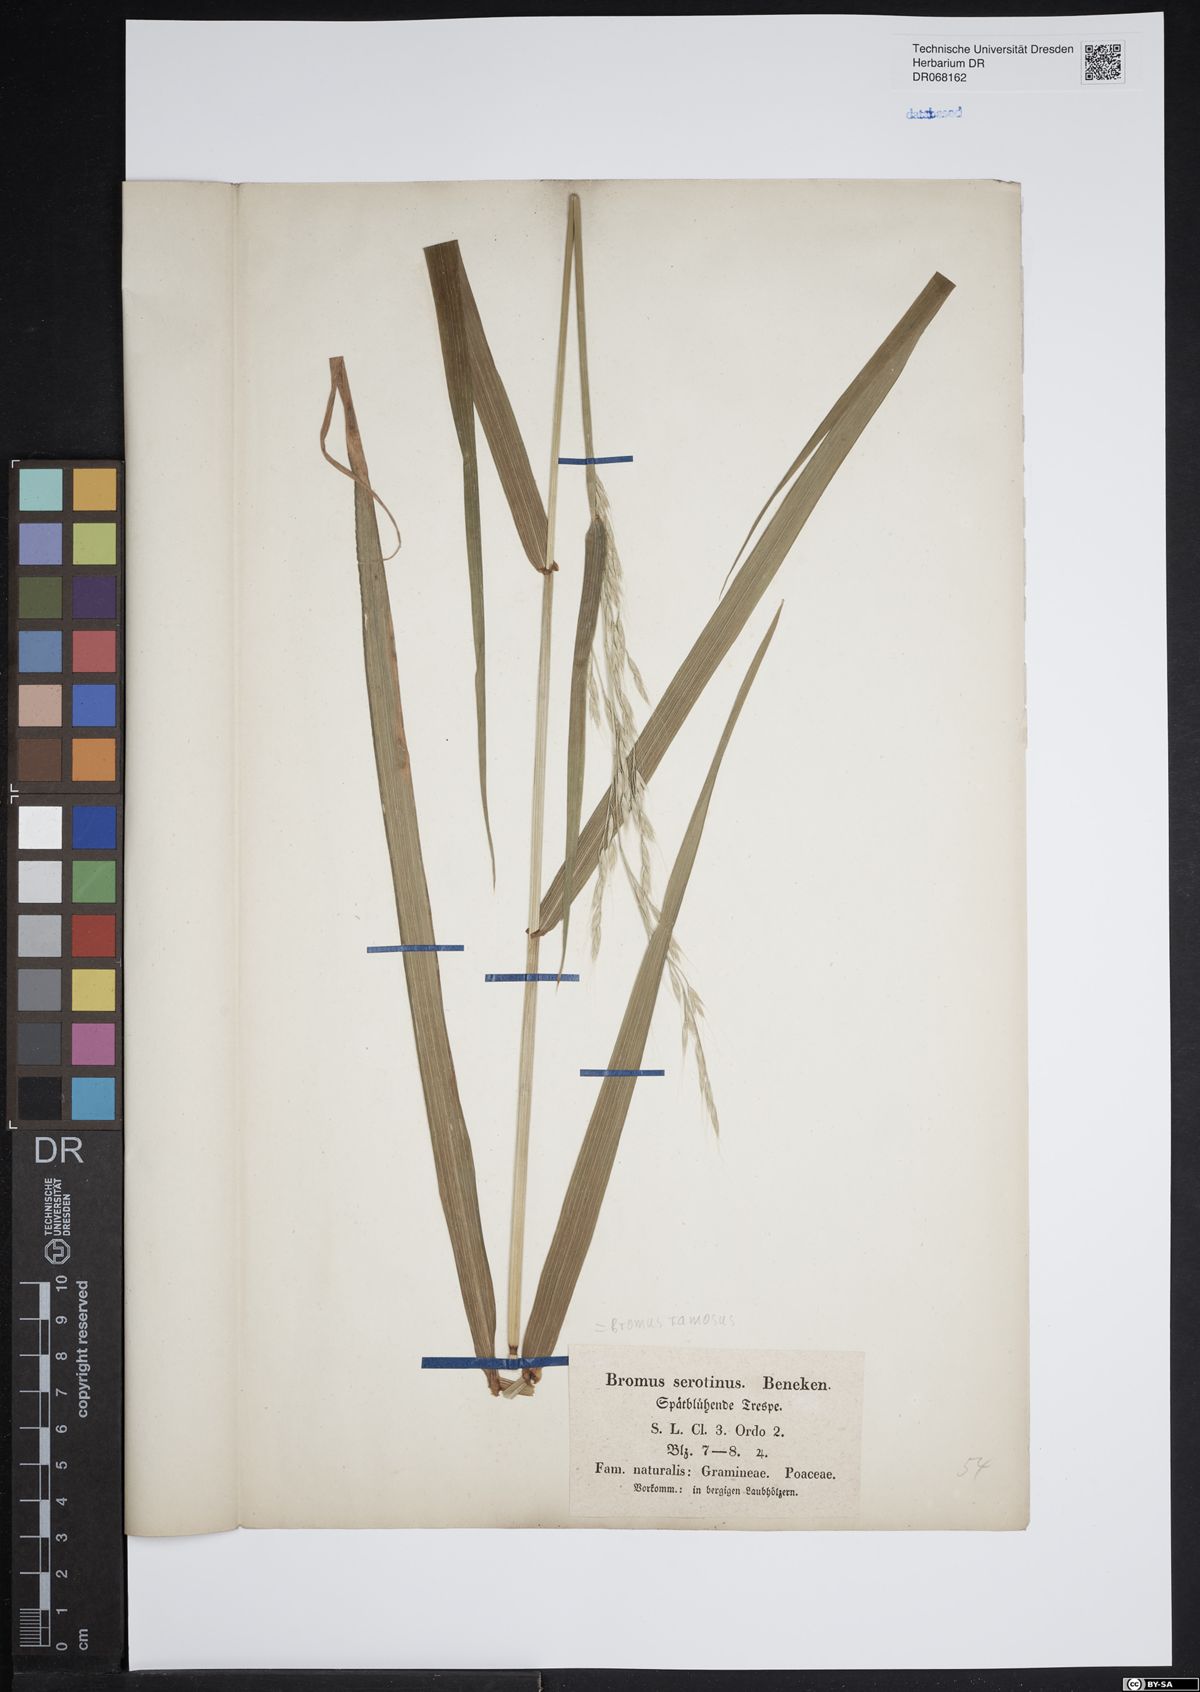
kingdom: Plantae
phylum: Tracheophyta
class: Liliopsida
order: Poales
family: Poaceae
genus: Bromus
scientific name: Bromus ramosus
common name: Hairy brome
